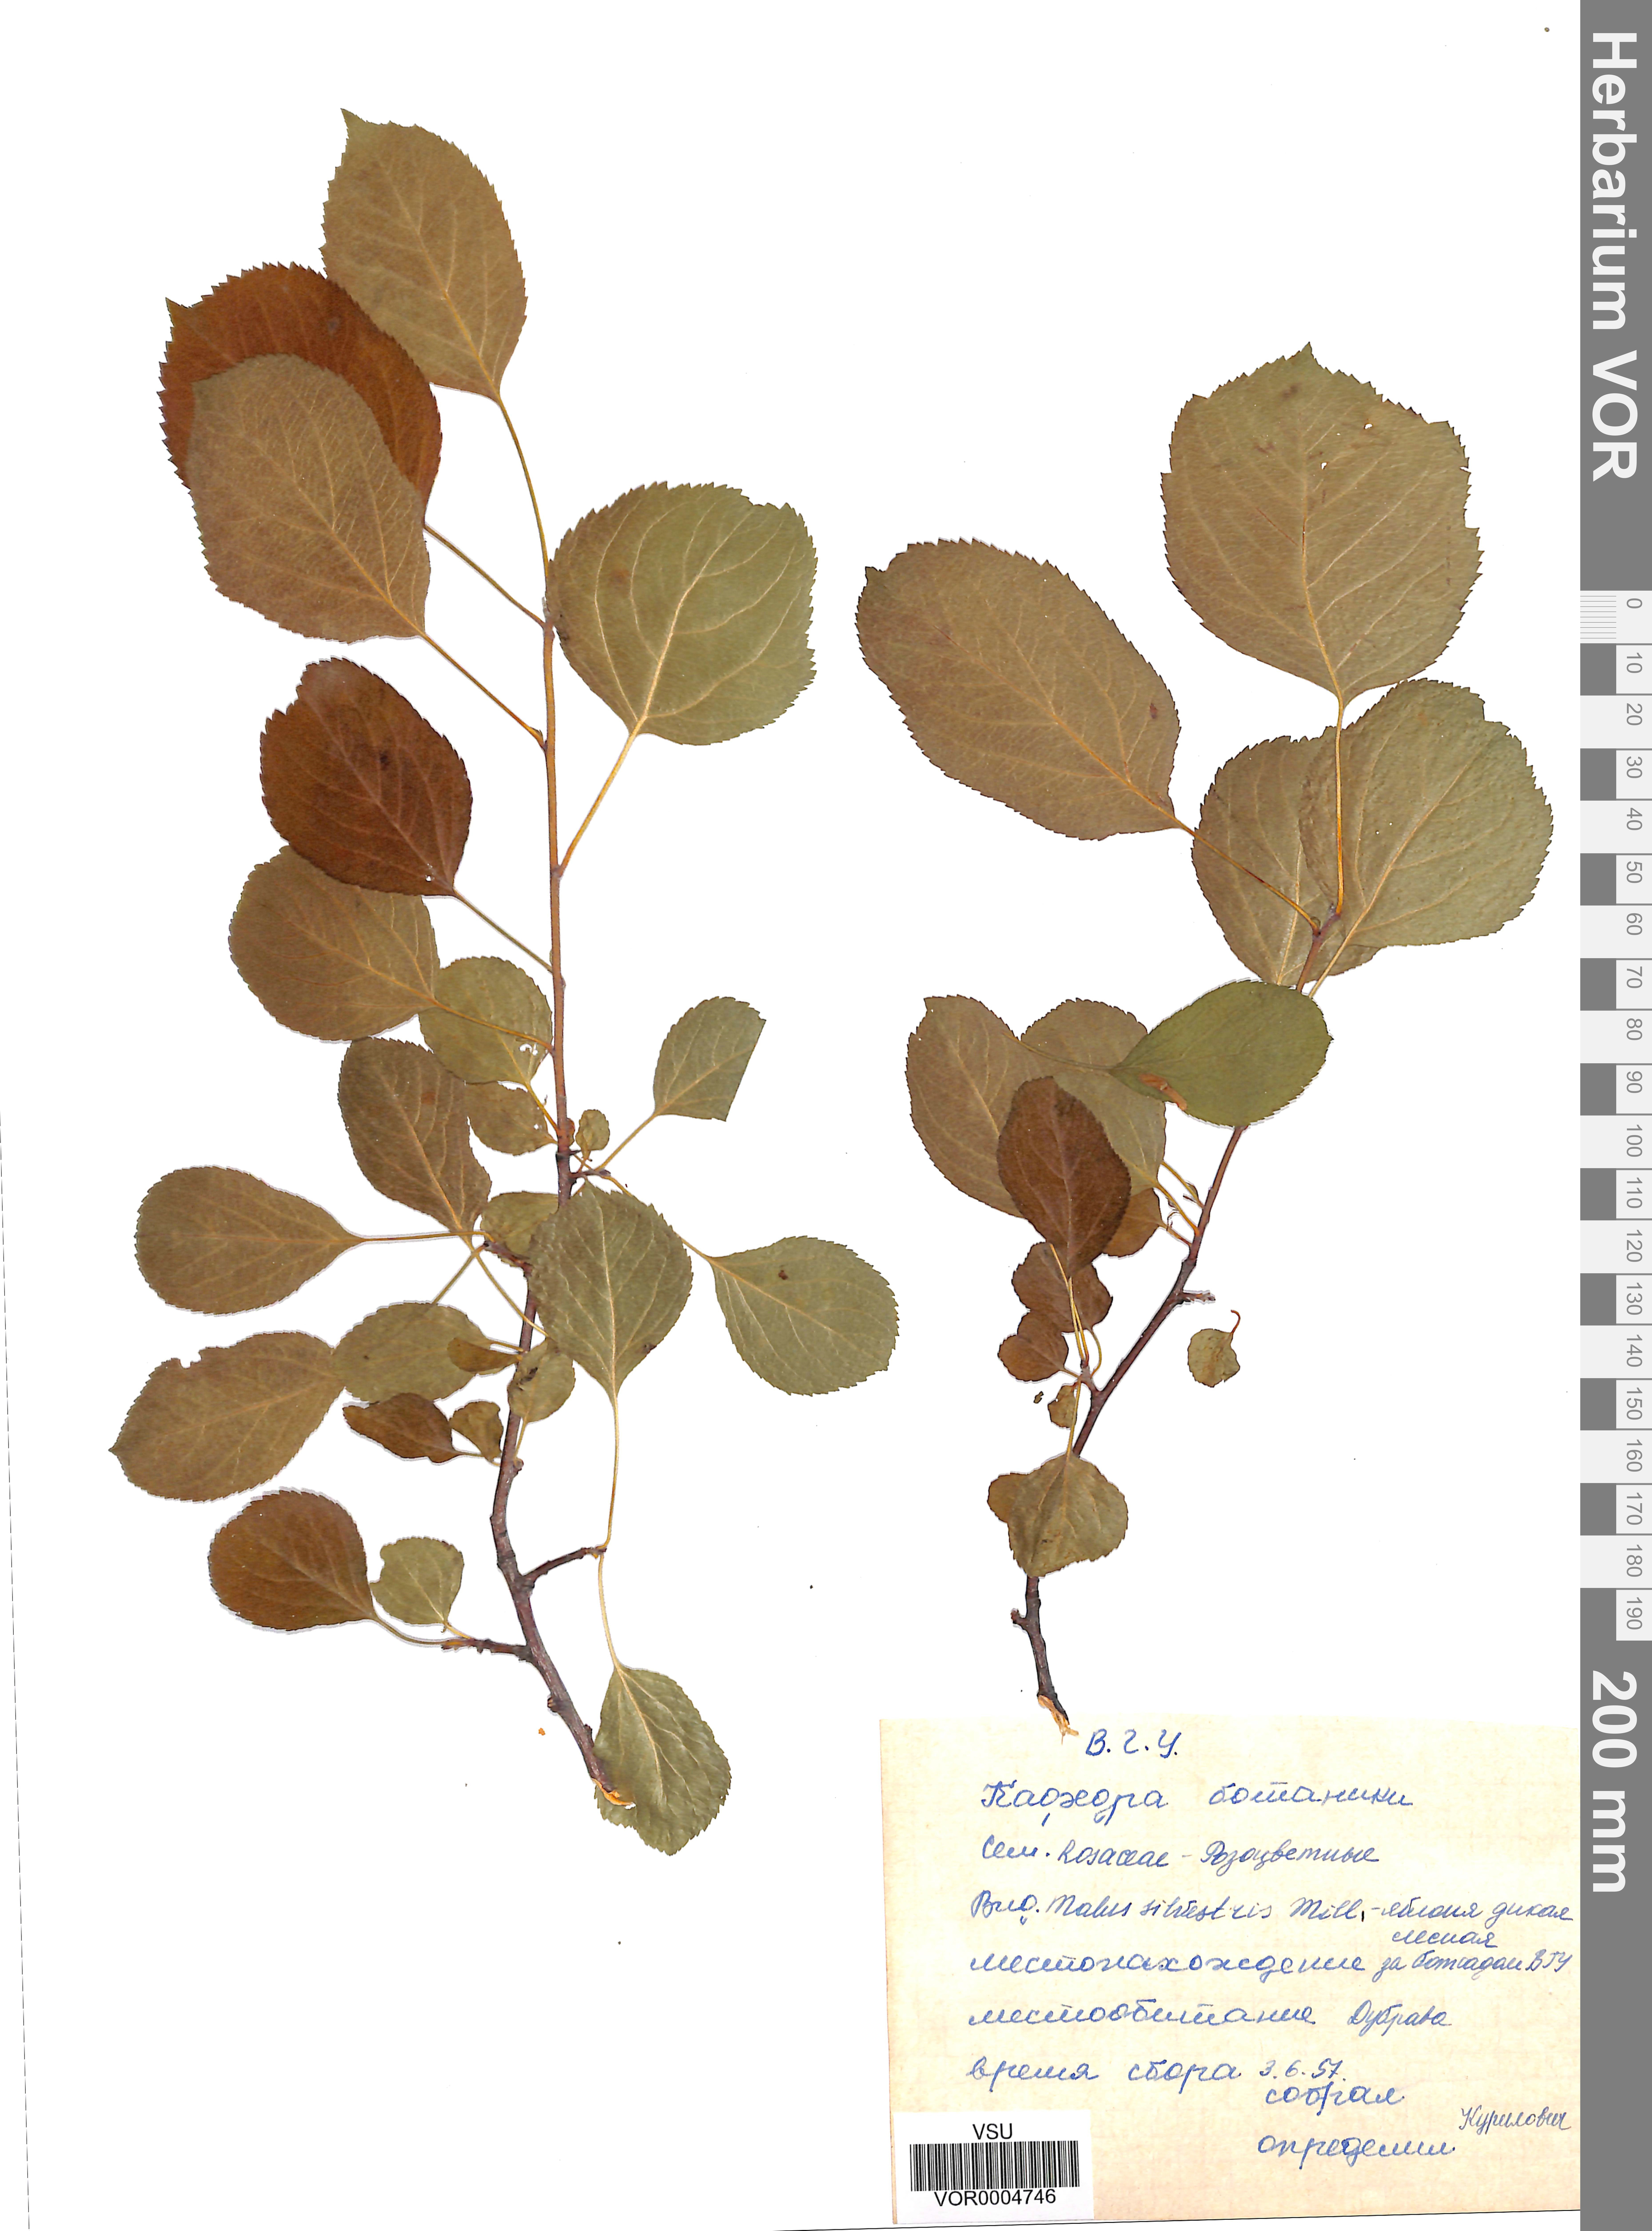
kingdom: Plantae
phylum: Tracheophyta
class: Magnoliopsida
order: Rosales
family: Rosaceae
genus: Malus
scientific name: Malus domestica
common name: Apple
